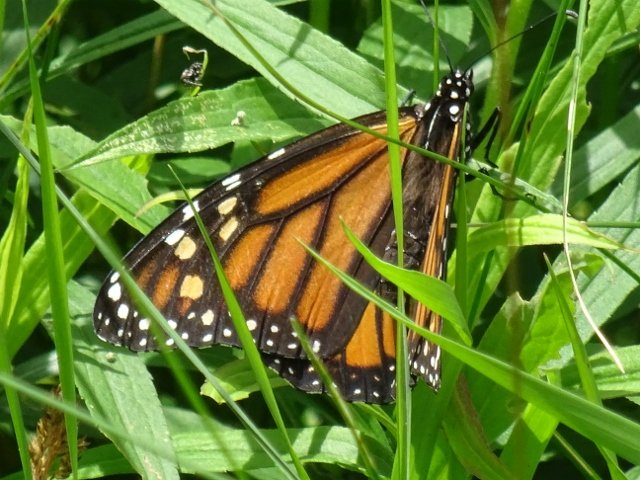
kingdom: Animalia
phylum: Arthropoda
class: Insecta
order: Lepidoptera
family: Nymphalidae
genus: Danaus
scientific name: Danaus plexippus
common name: Monarch
